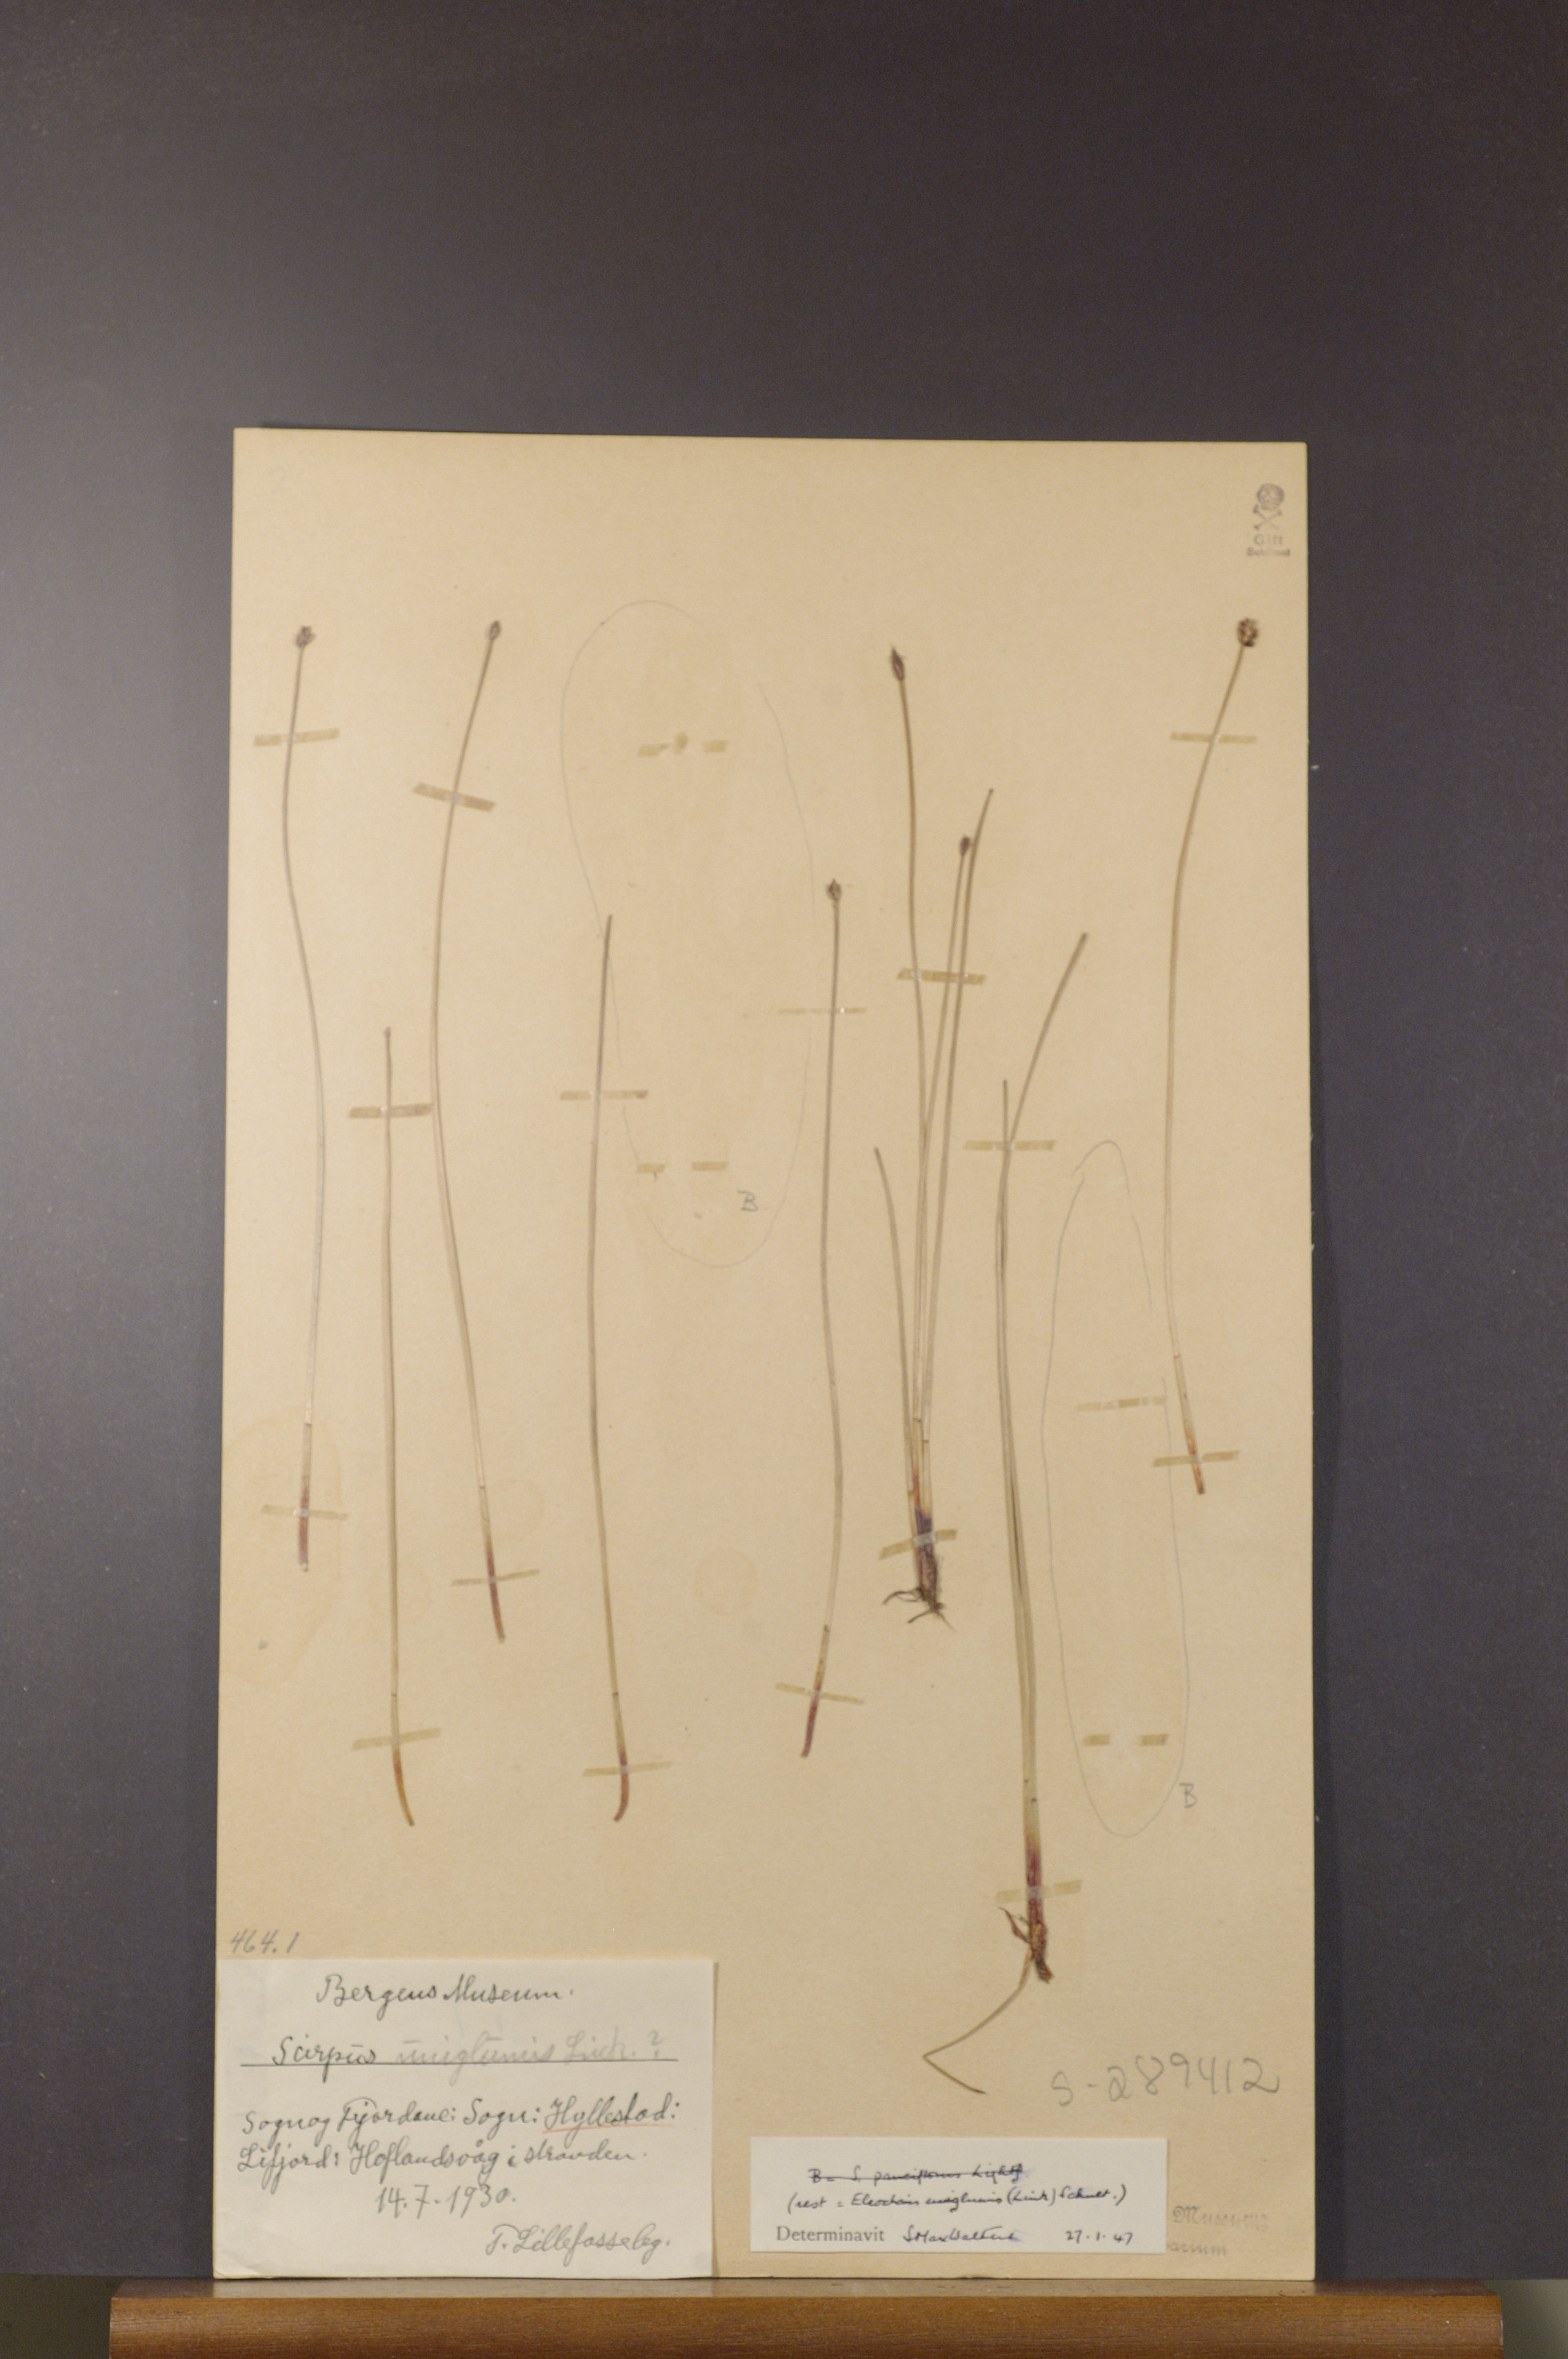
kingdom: Plantae
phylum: Tracheophyta
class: Liliopsida
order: Poales
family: Cyperaceae
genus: Eleocharis
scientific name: Eleocharis uniglumis
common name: Slender spike-rush
